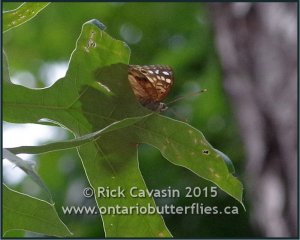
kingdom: Animalia
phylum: Arthropoda
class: Insecta
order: Lepidoptera
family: Nymphalidae
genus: Asterocampa
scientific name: Asterocampa celtis
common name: Hackberry Emperor
